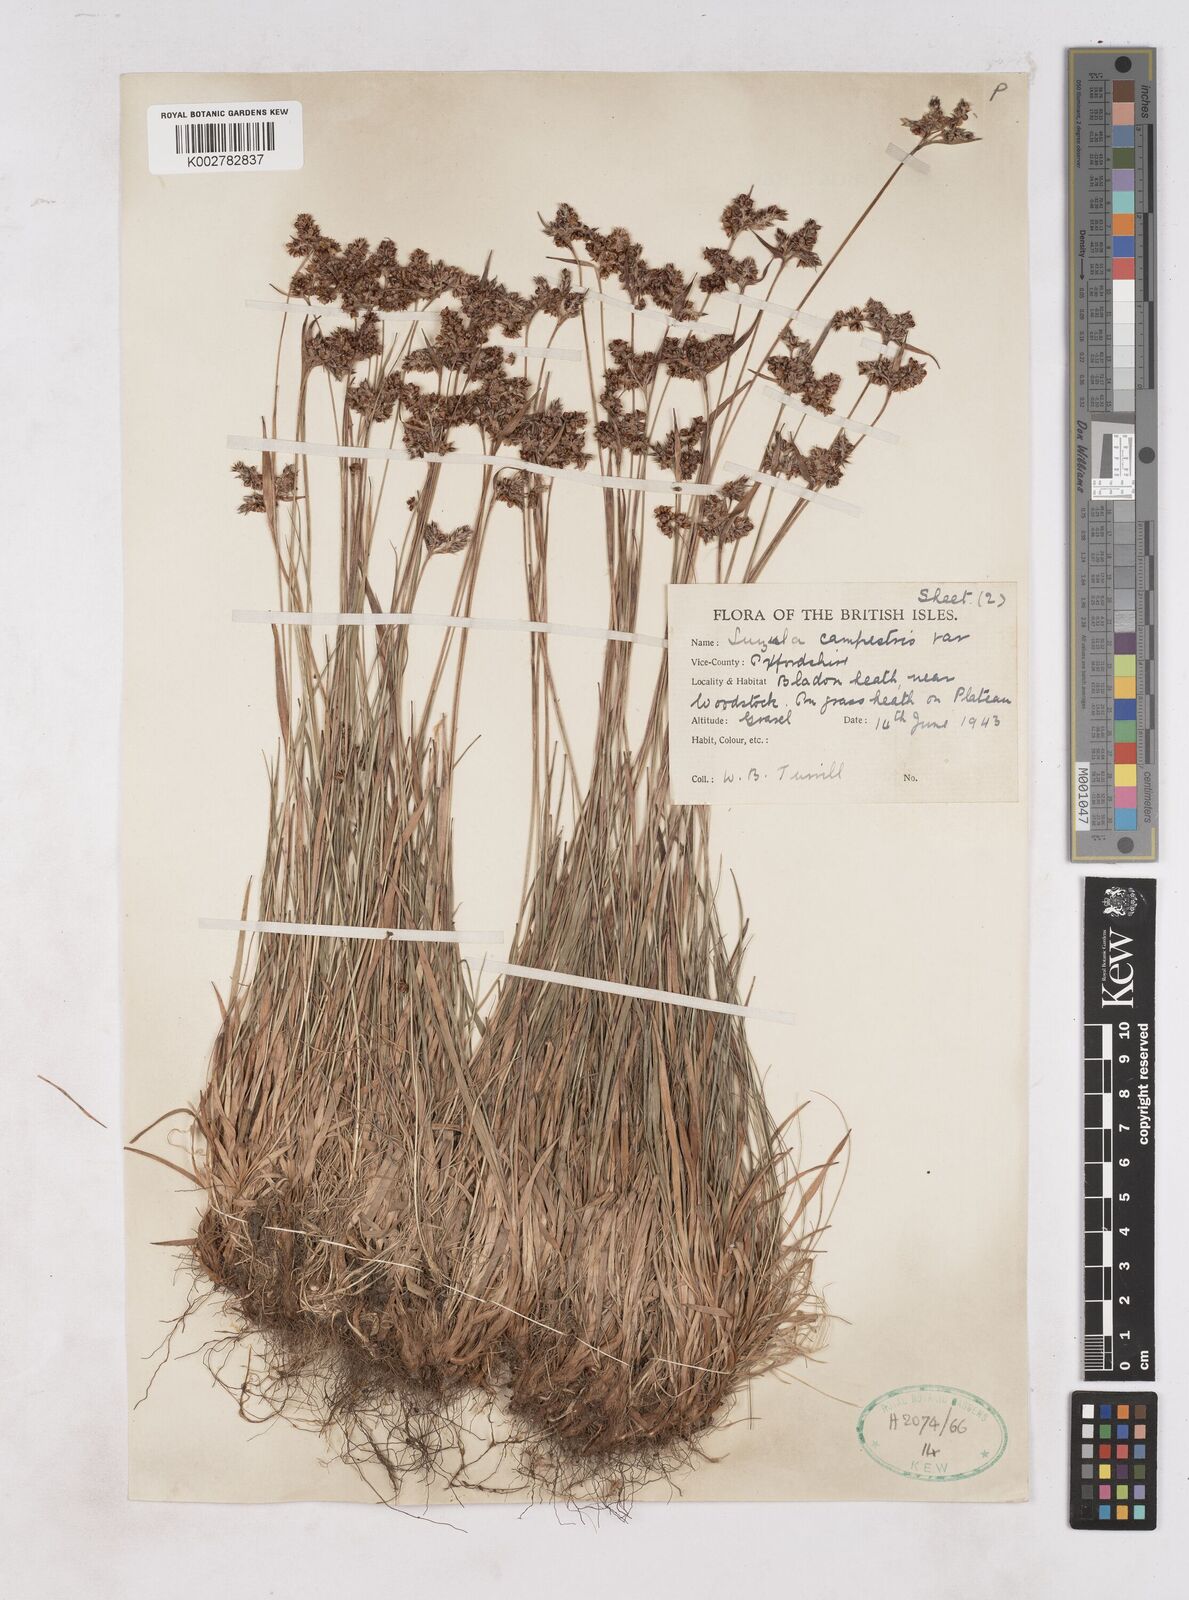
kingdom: Plantae
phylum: Tracheophyta
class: Liliopsida
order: Poales
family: Juncaceae
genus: Luzula
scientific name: Luzula campestris
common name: Field wood-rush
